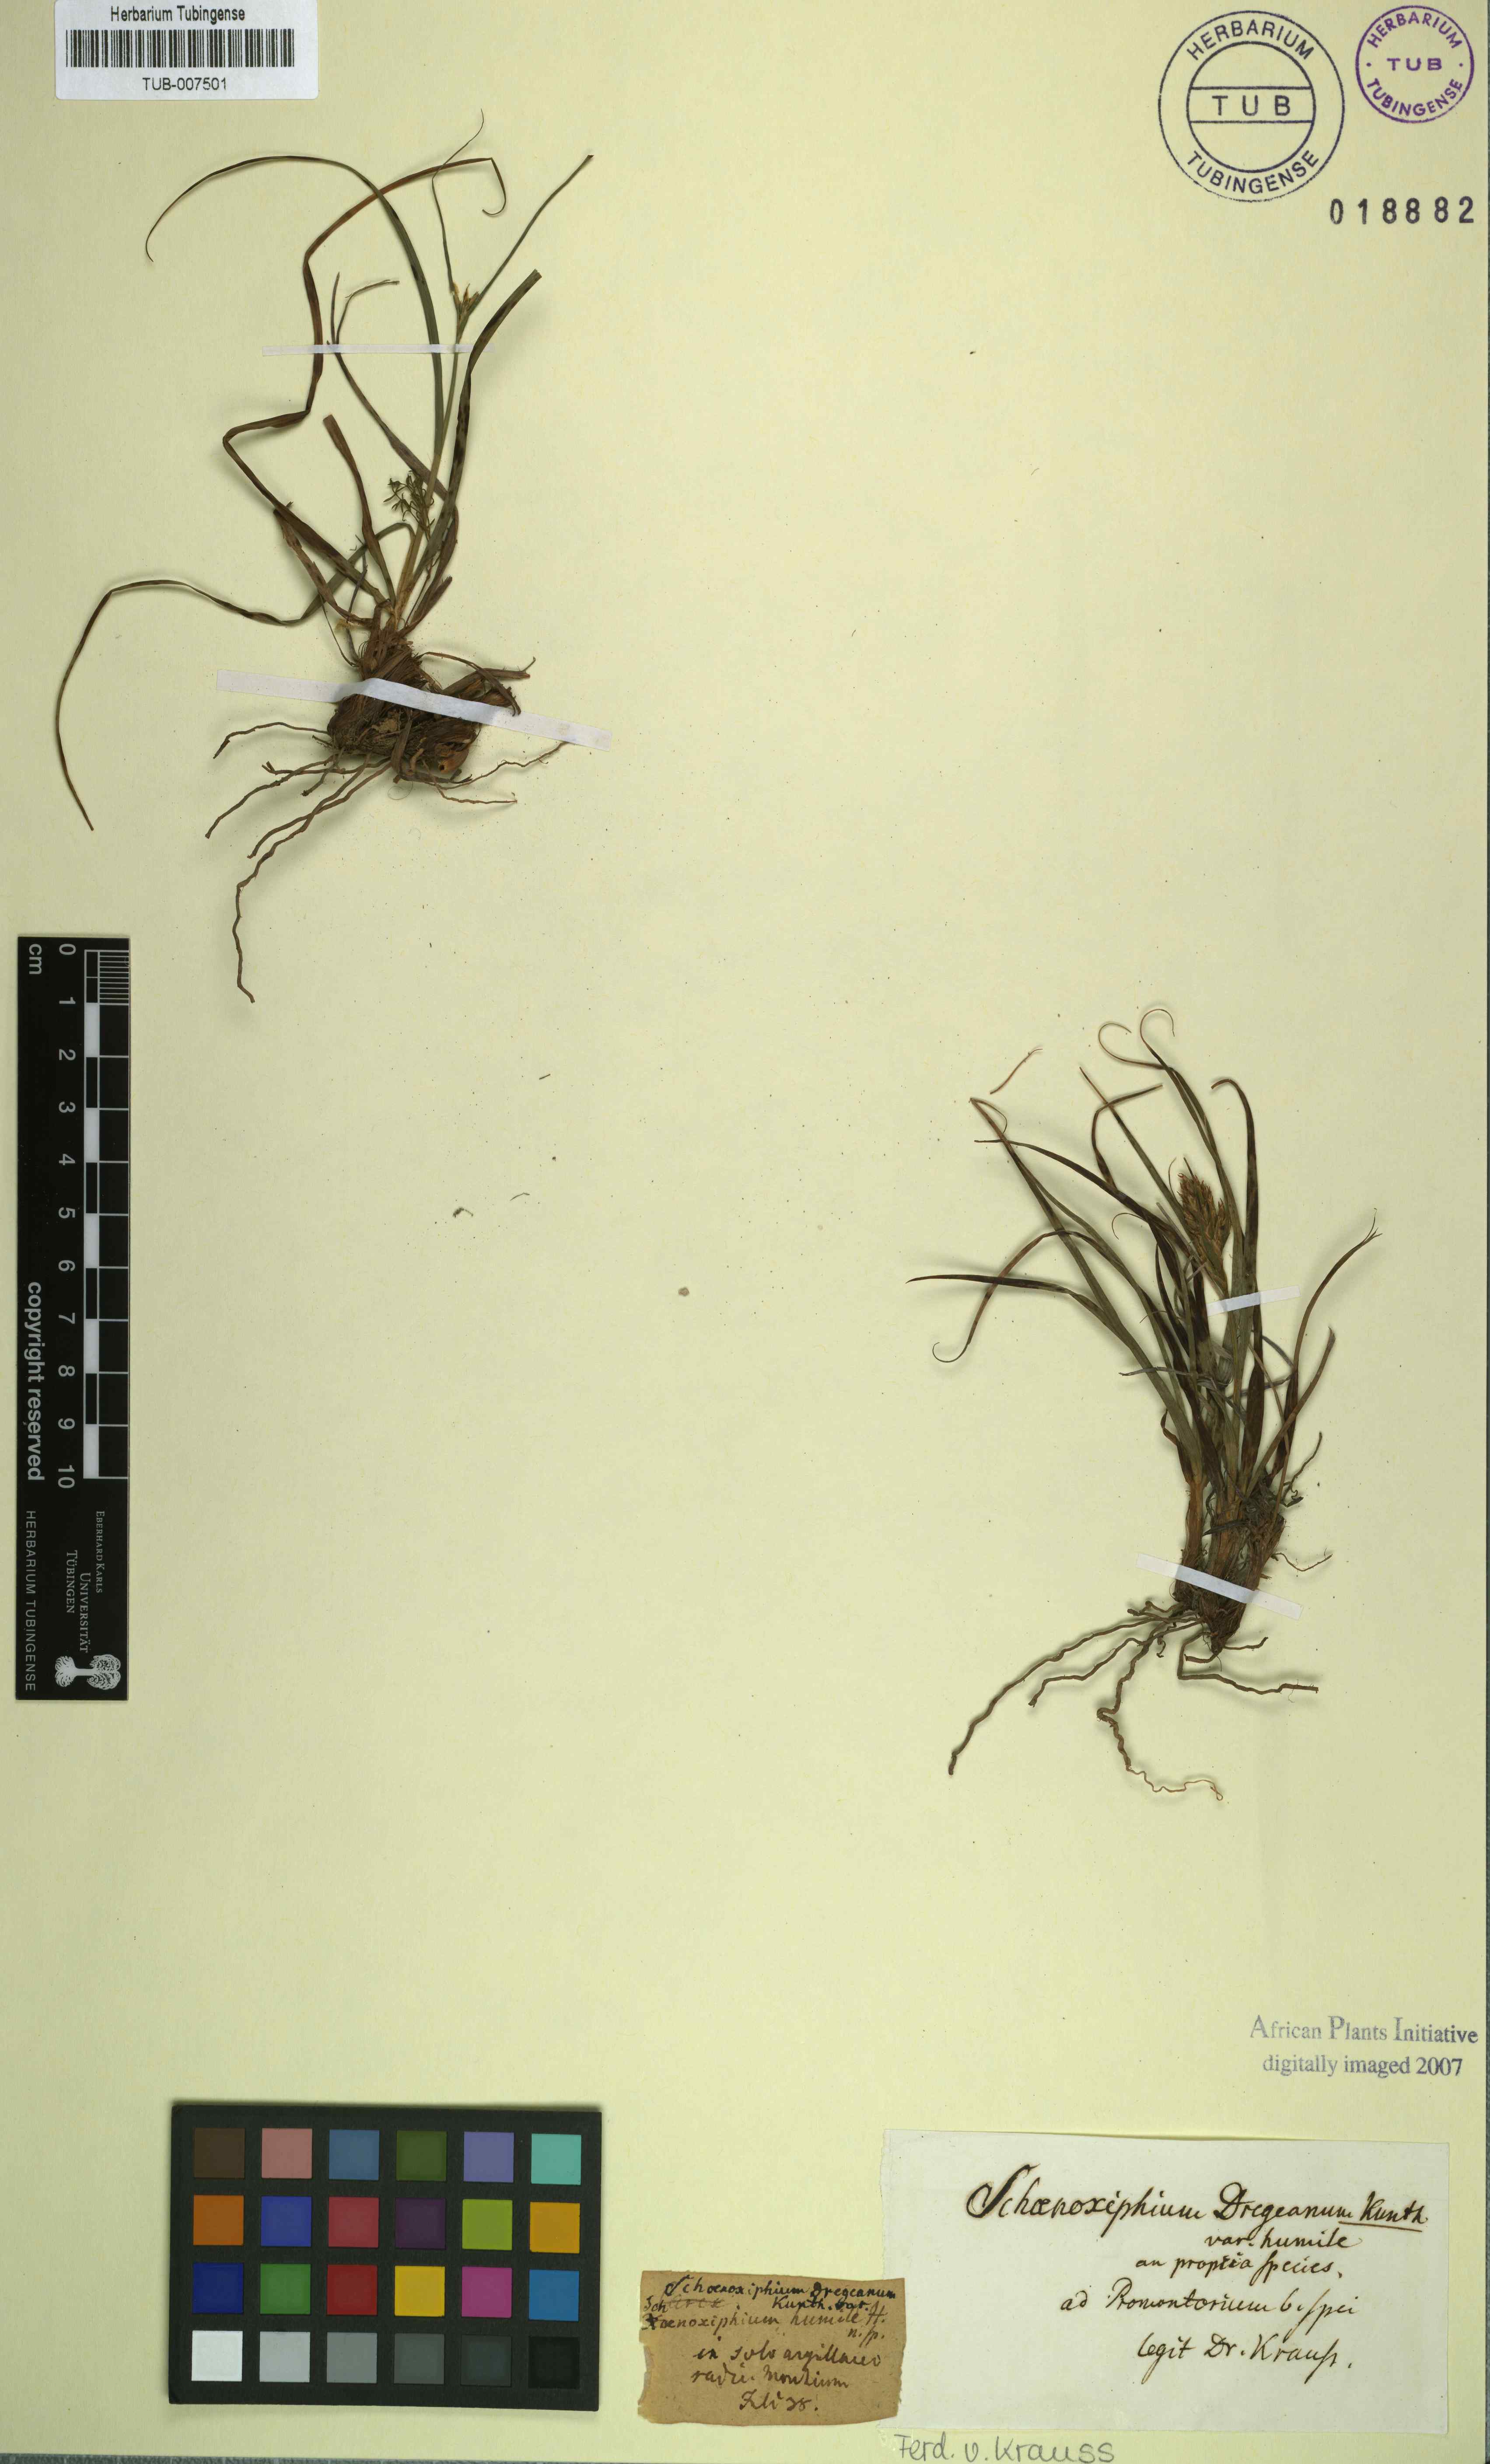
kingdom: Plantae
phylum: Tracheophyta
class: Liliopsida
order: Poales
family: Cyperaceae
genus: Carex
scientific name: Carex ludwigii
